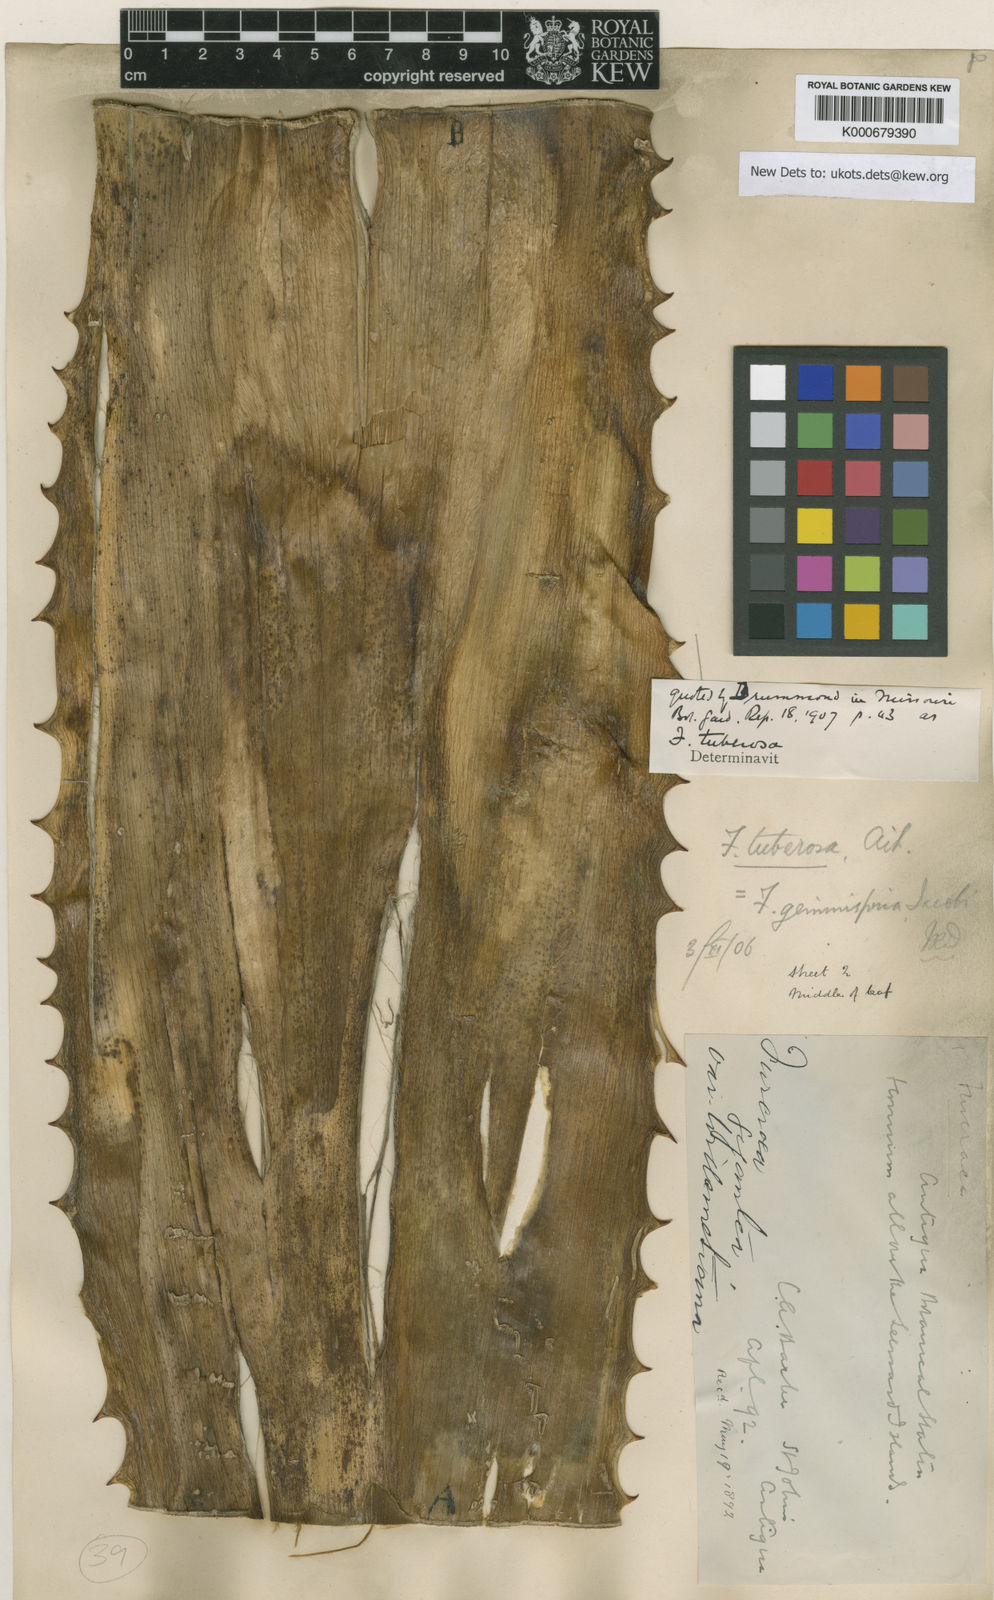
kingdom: Plantae
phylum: Tracheophyta
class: Liliopsida
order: Asparagales
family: Asparagaceae
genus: Furcraea
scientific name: Furcraea tuberosa
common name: Karata
